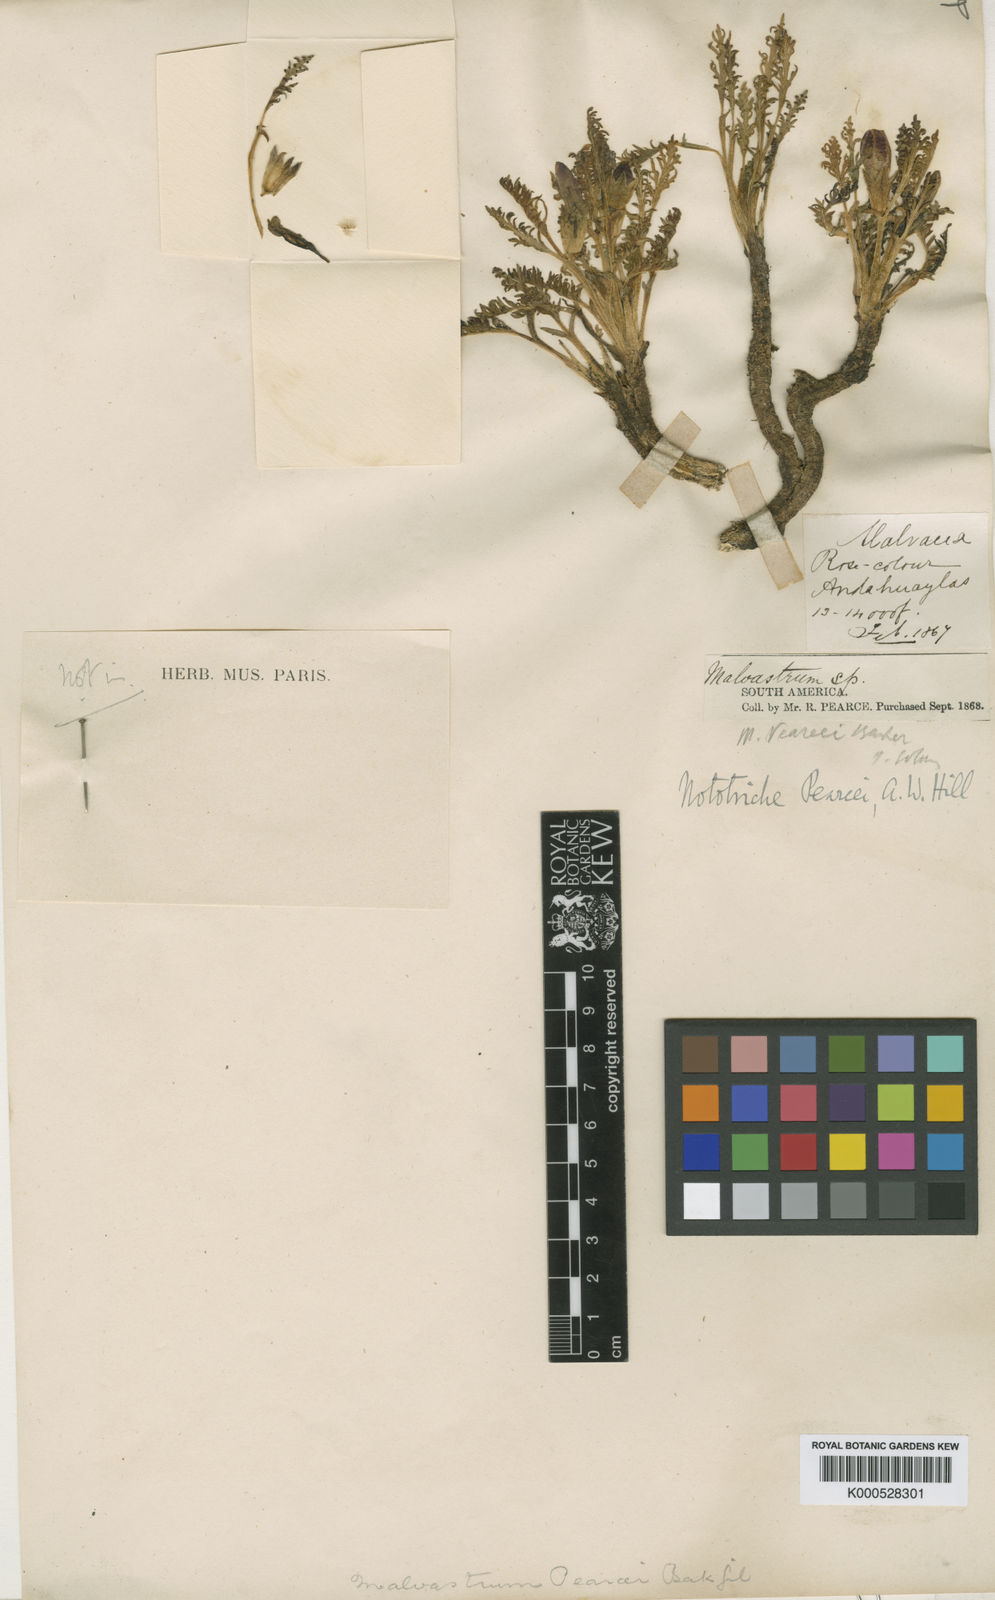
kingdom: Plantae
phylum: Tracheophyta
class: Magnoliopsida
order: Malvales
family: Malvaceae
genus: Nototriche
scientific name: Nototriche pearcei
